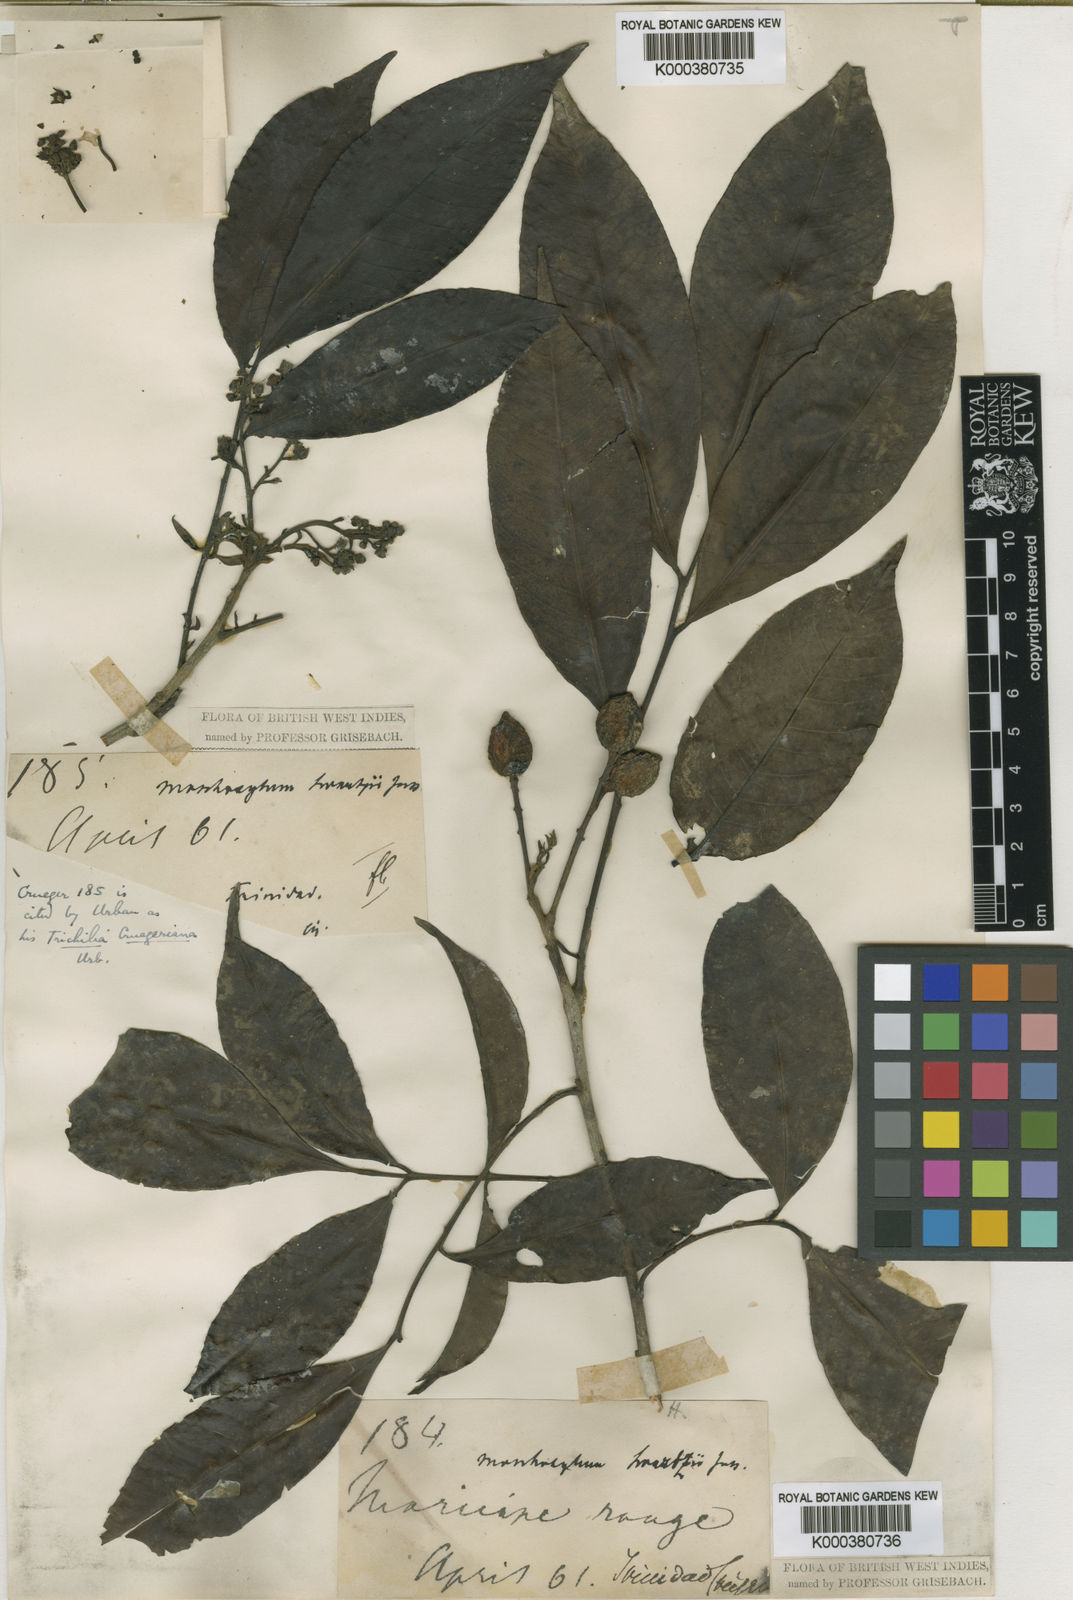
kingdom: Plantae
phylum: Tracheophyta
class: Magnoliopsida
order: Sapindales
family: Meliaceae
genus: Trichilia
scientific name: Trichilia pleeana
